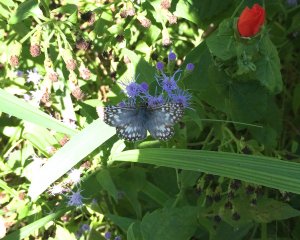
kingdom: Animalia
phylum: Arthropoda
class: Insecta
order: Lepidoptera
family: Hesperiidae
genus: Pyrgus
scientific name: Pyrgus communis
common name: White Checkered-Skipper
